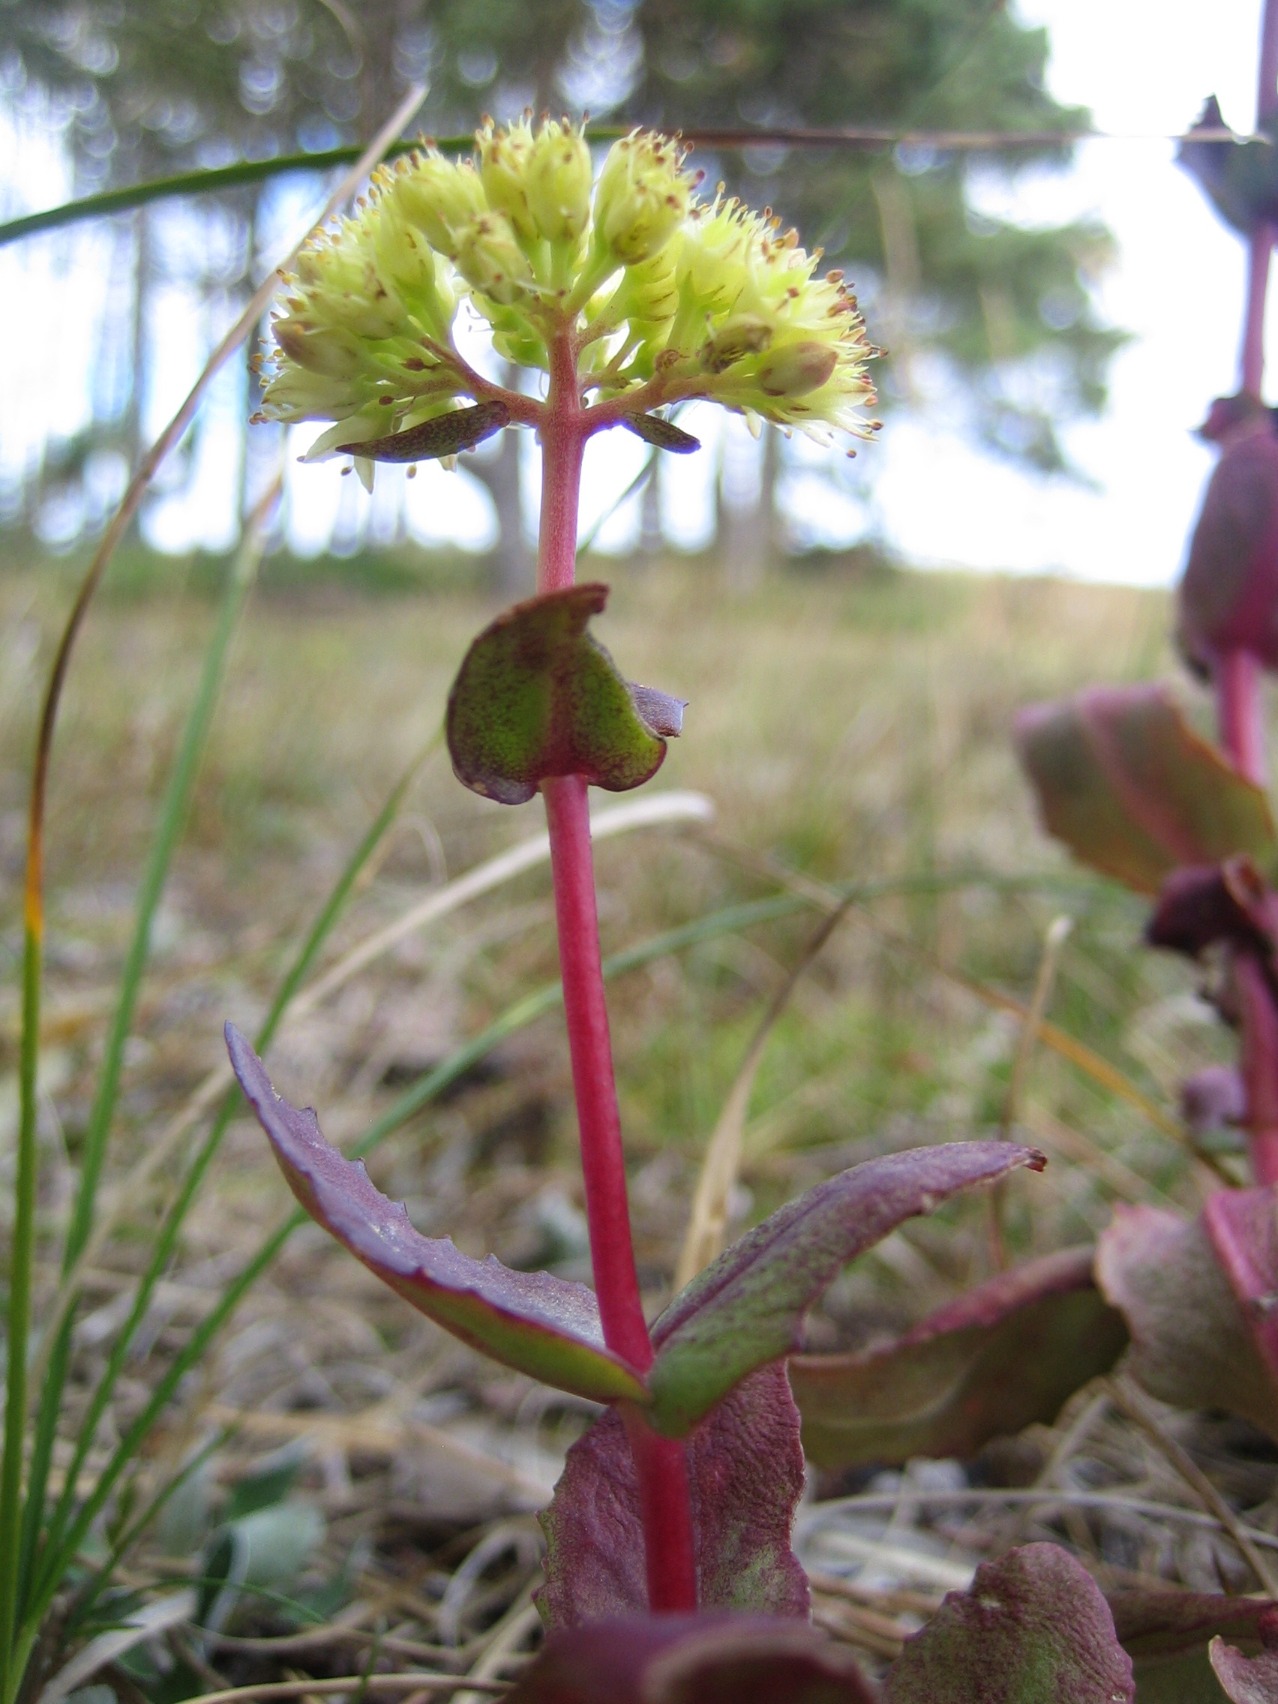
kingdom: Plantae
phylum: Tracheophyta
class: Magnoliopsida
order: Saxifragales
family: Crassulaceae
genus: Hylotelephium
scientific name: Hylotelephium maximum
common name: Almindelig sankthansurt
